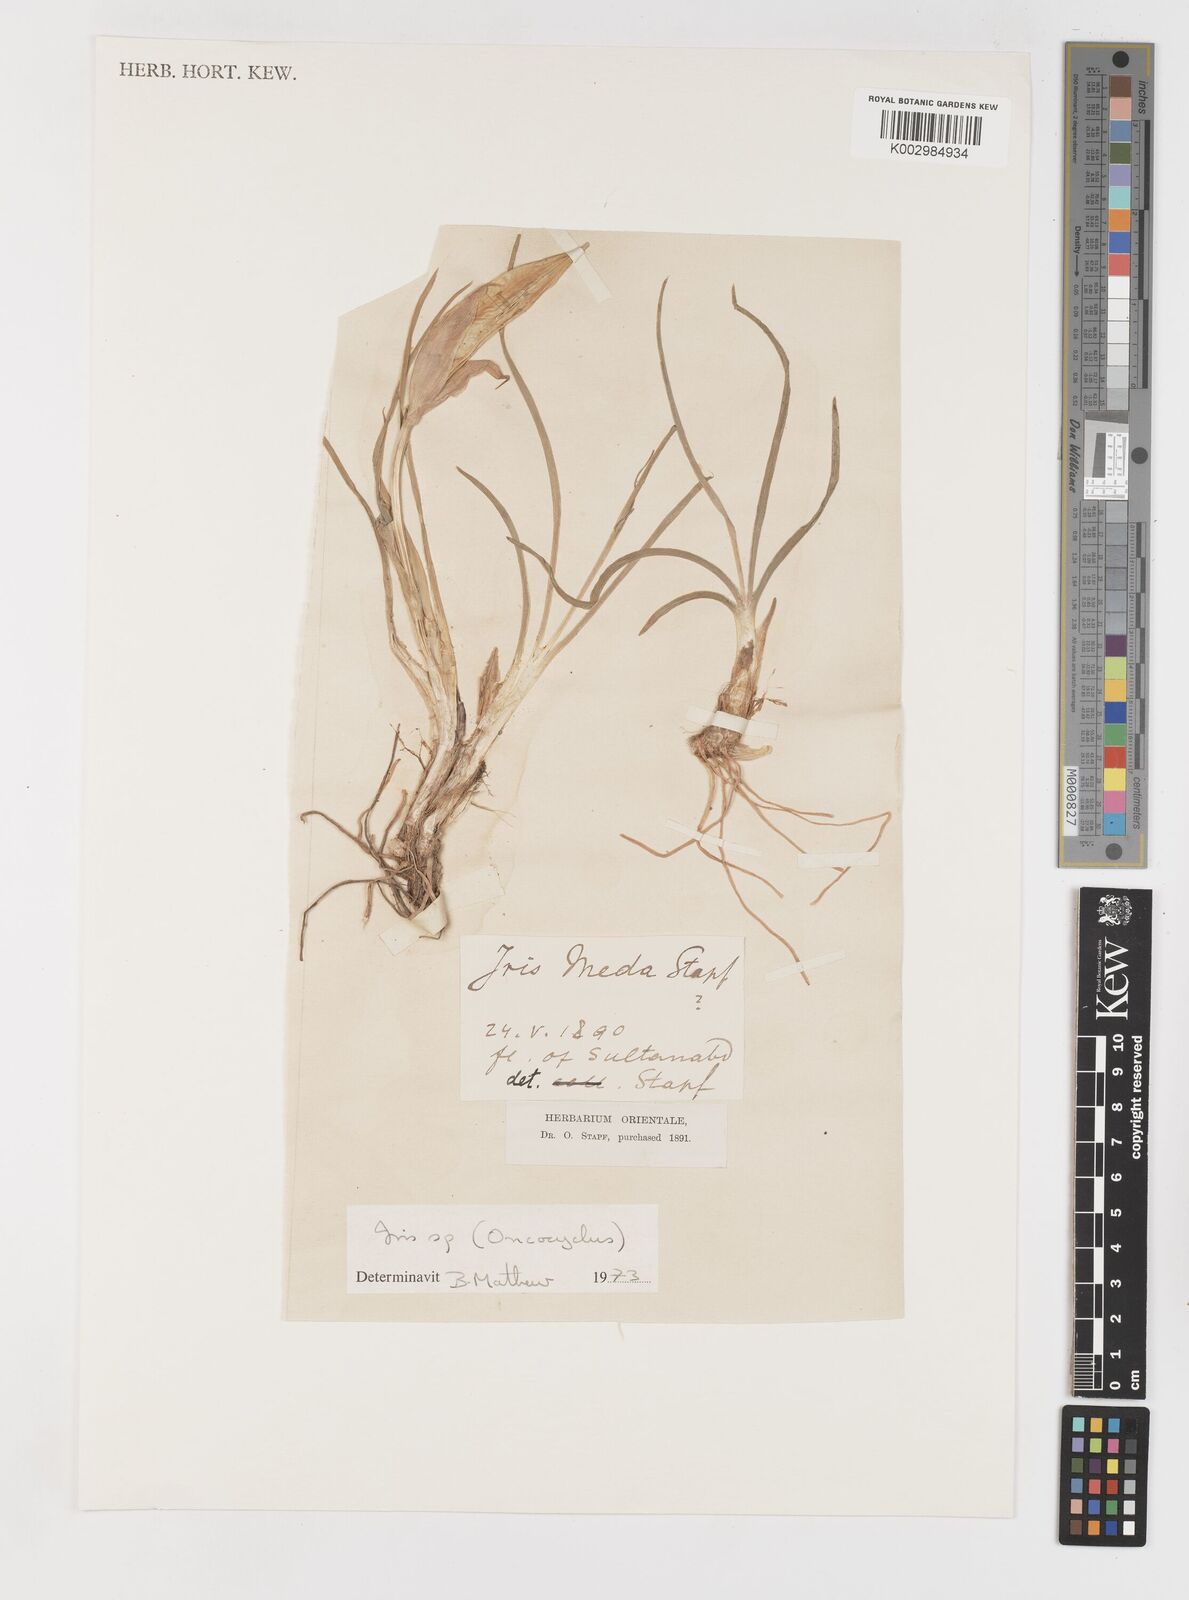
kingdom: Plantae
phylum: Tracheophyta
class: Liliopsida
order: Asparagales
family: Iridaceae
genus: Iris
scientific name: Iris
